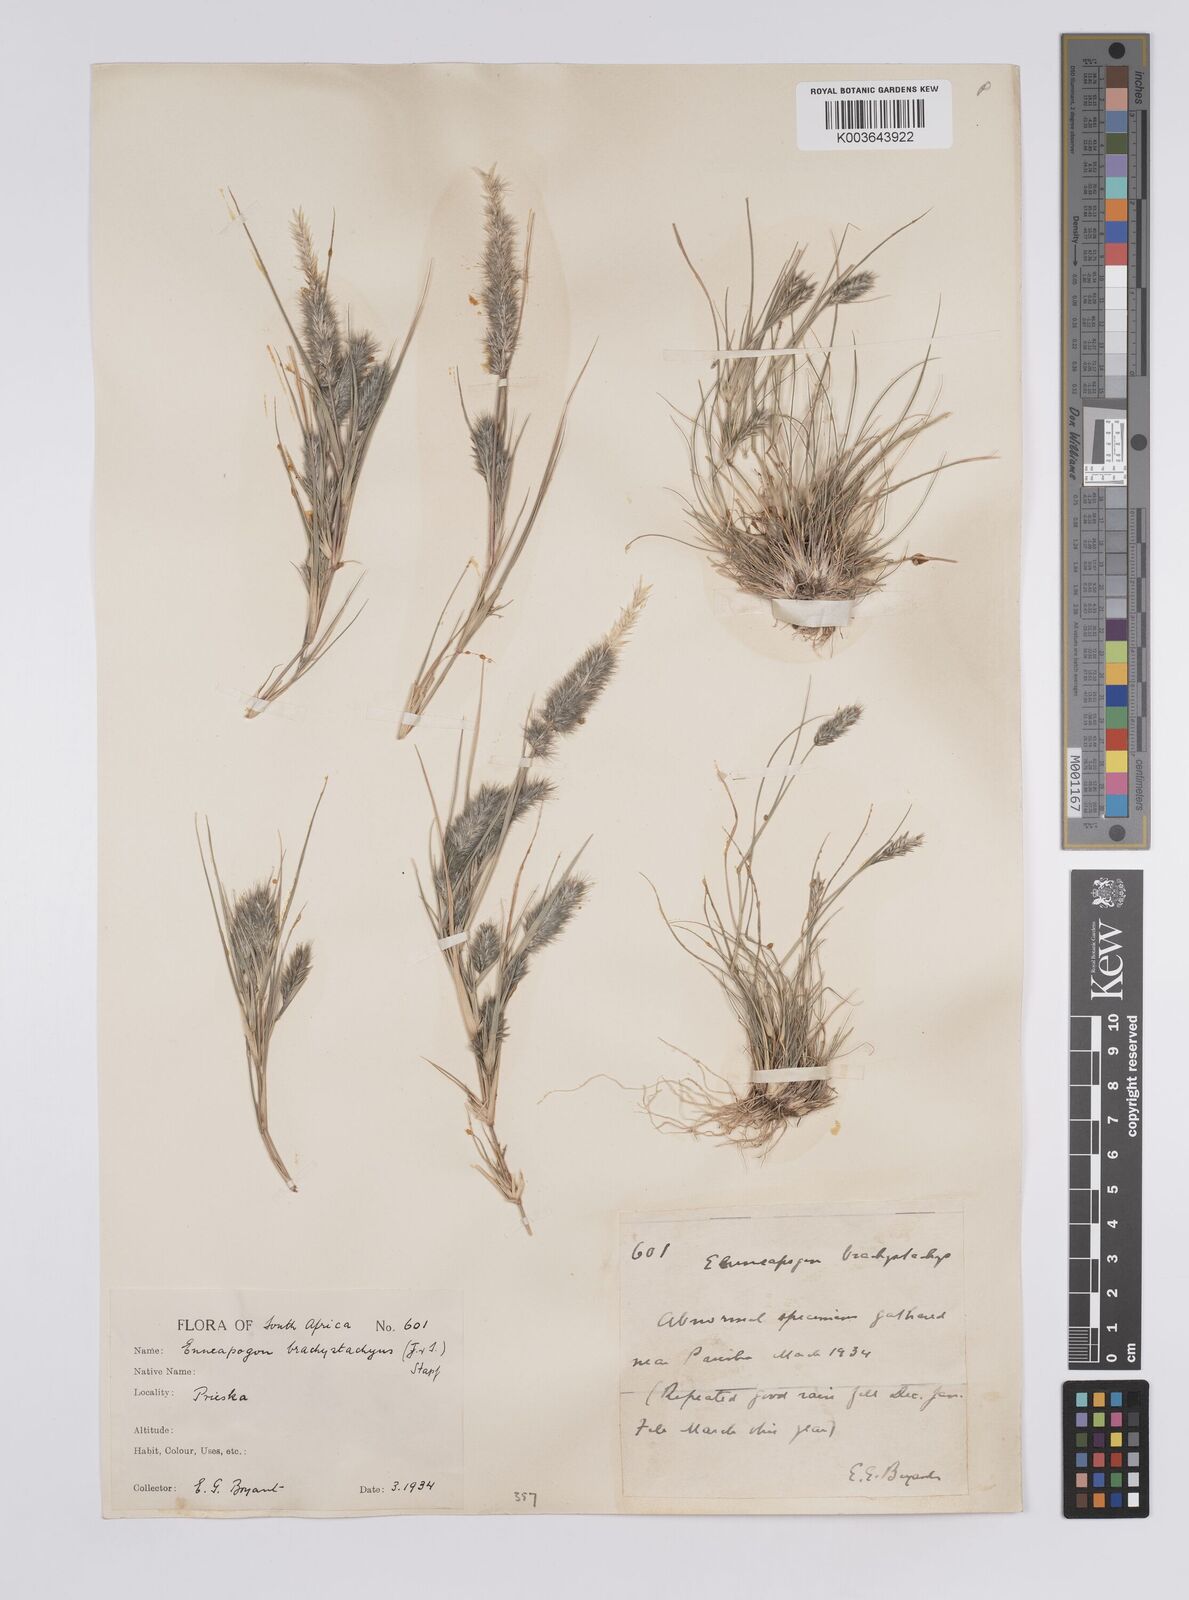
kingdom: Plantae
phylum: Tracheophyta
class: Liliopsida
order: Poales
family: Poaceae
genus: Enneapogon
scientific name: Enneapogon desvauxii
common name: Feather pappus grass
